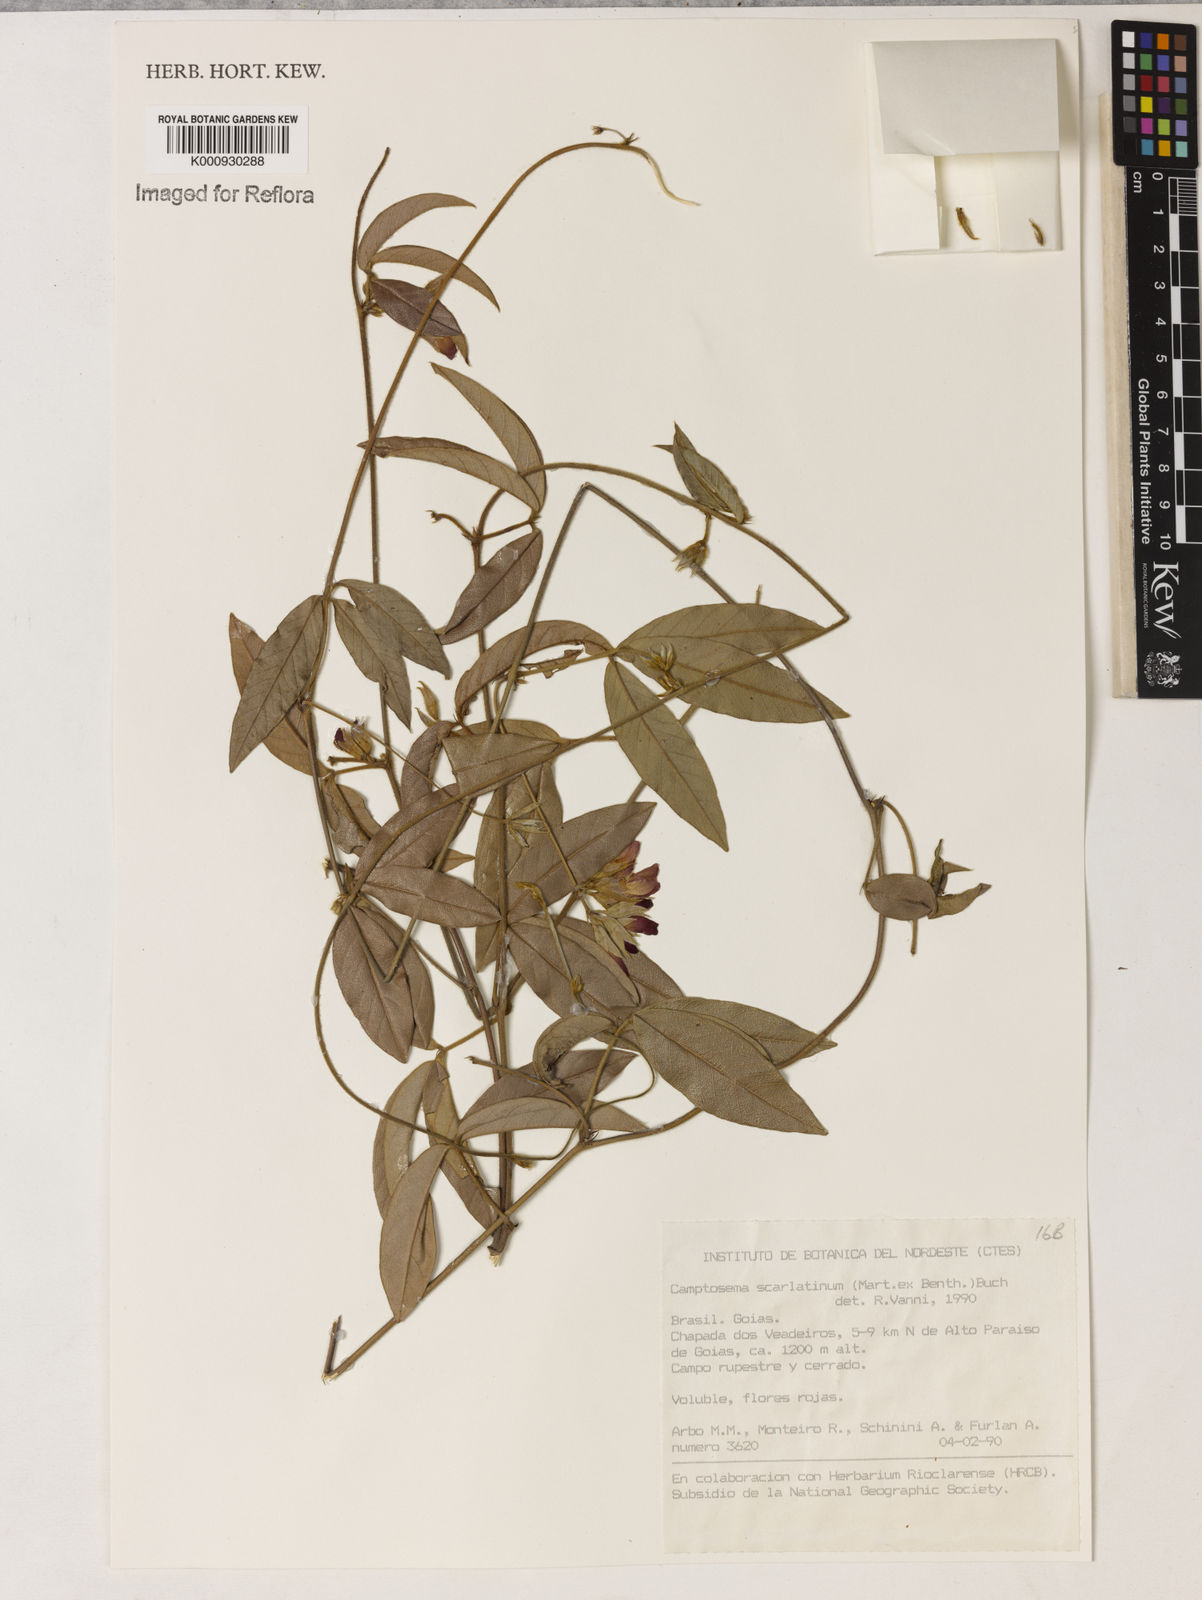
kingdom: Plantae
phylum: Tracheophyta
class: Magnoliopsida
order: Fabales
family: Fabaceae
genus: Betencourtia
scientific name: Betencourtia scarlatina
